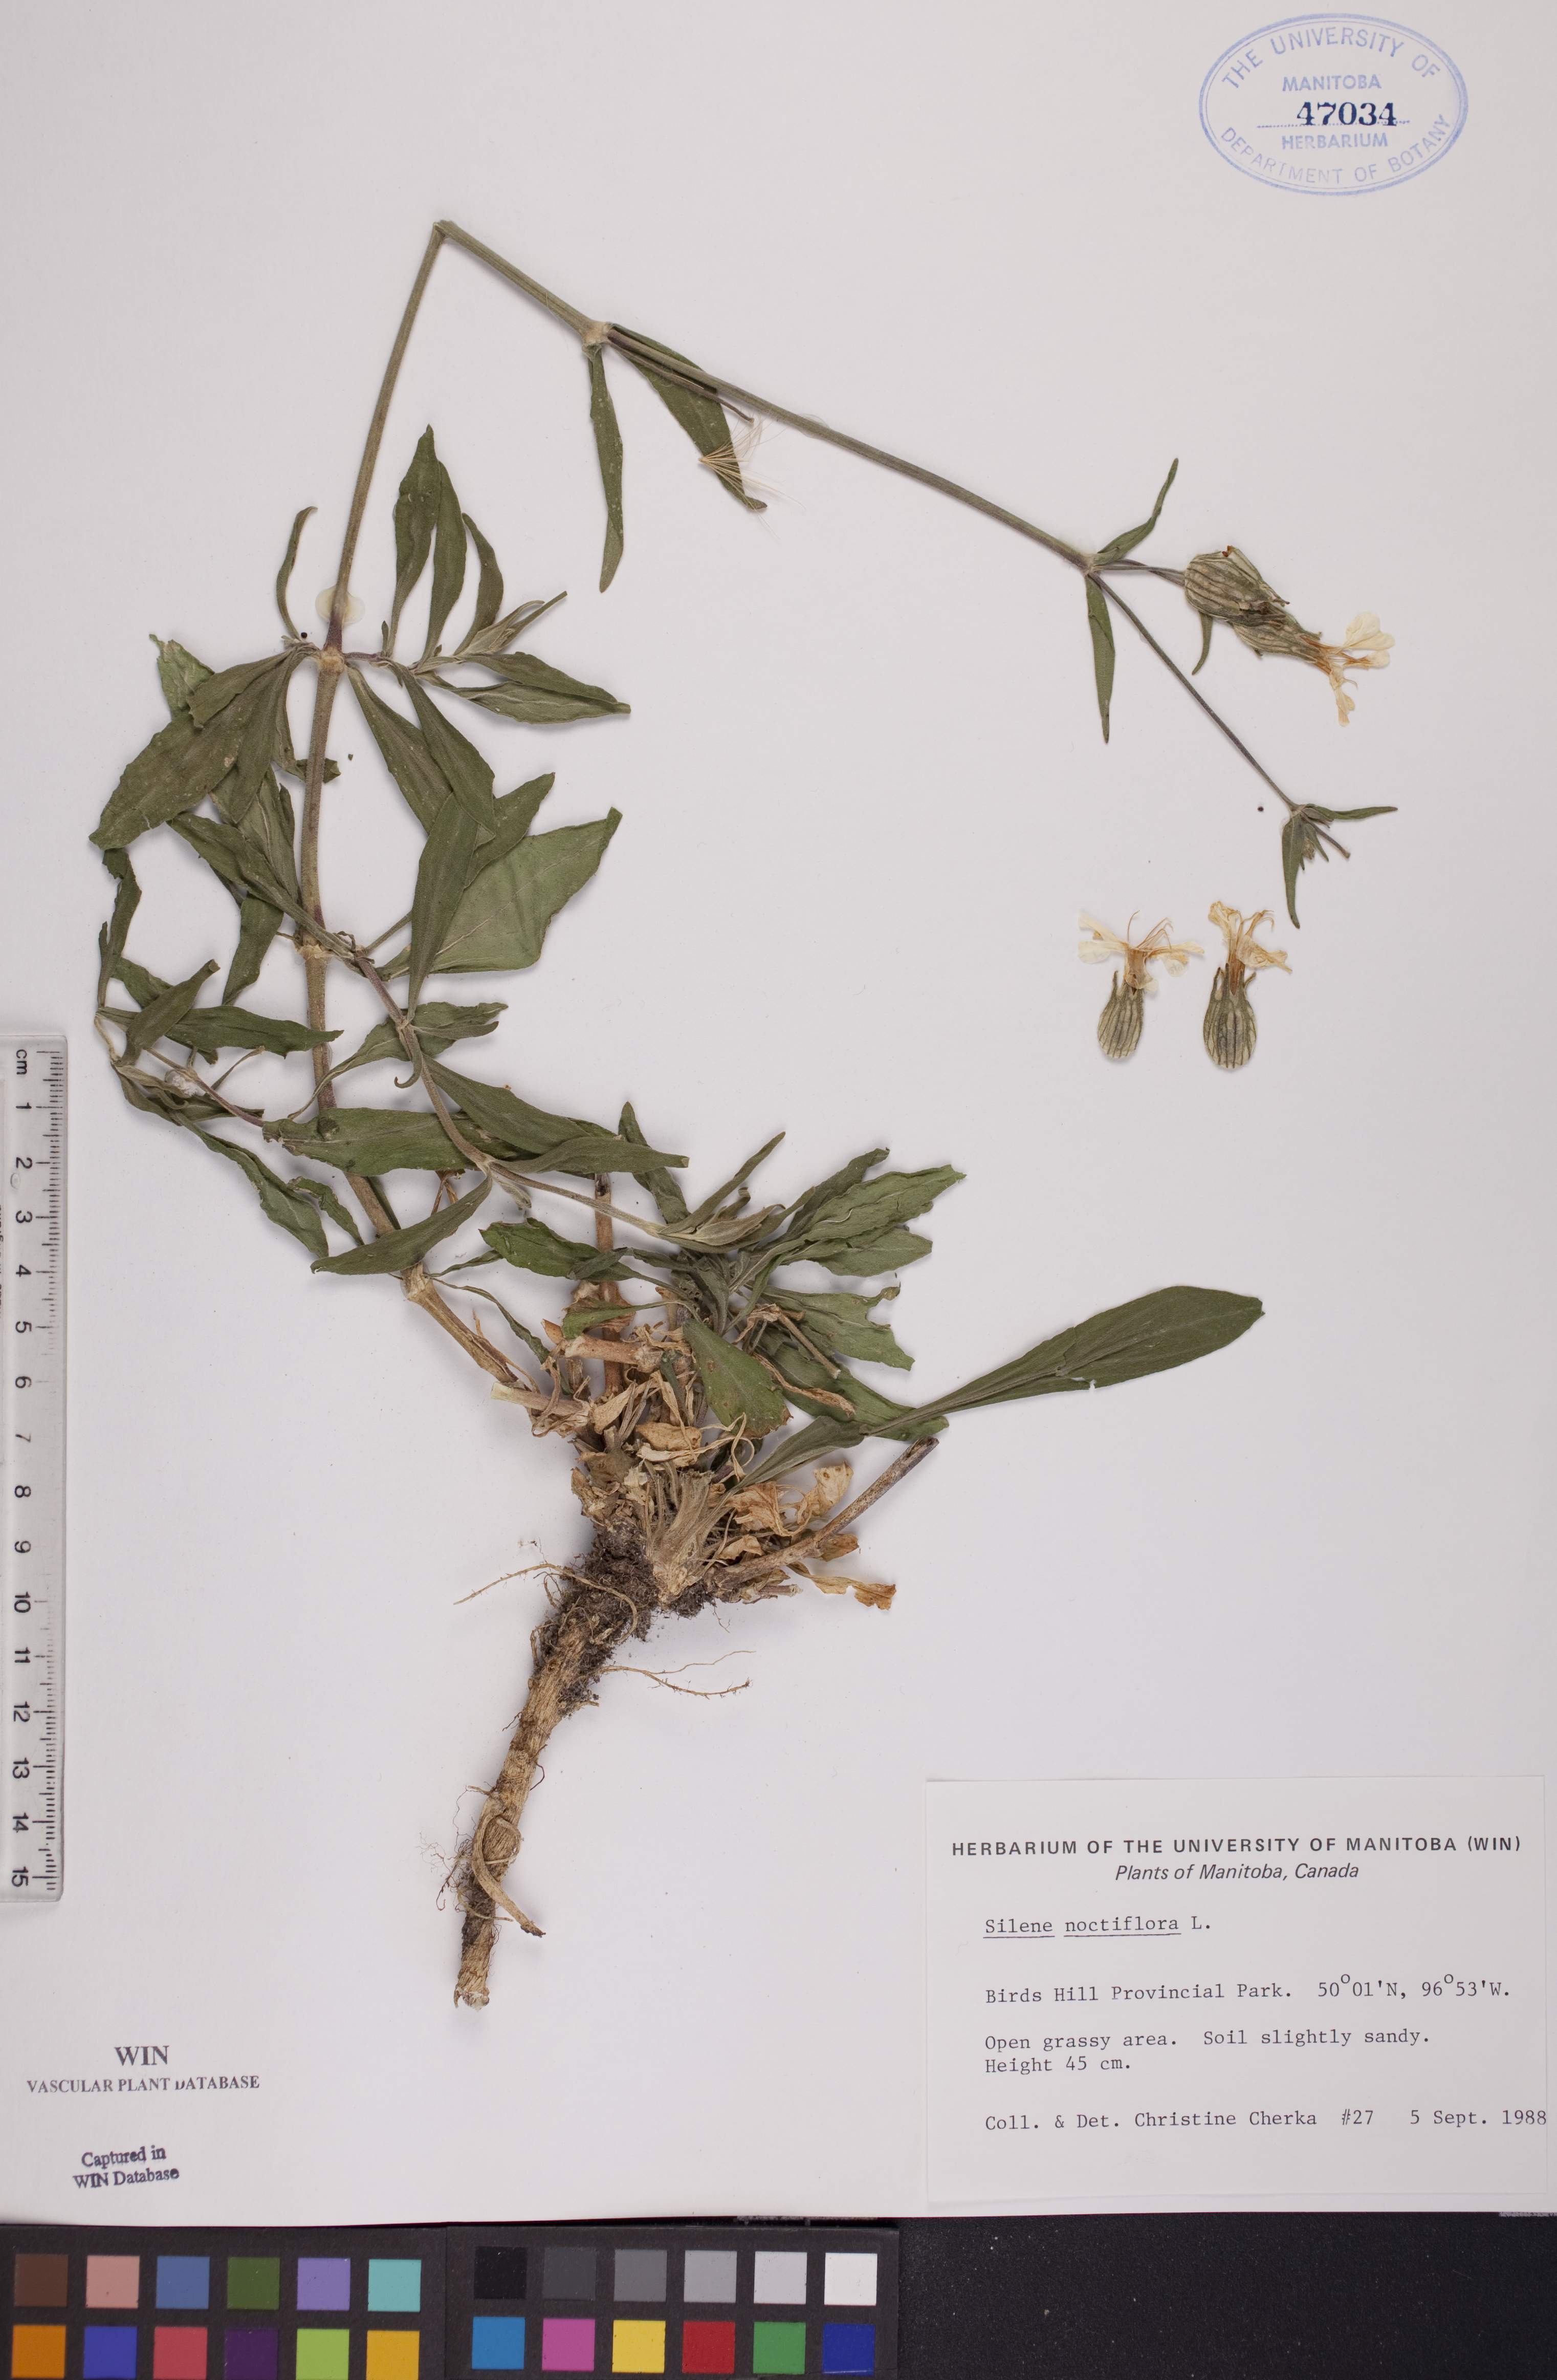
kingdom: Plantae
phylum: Tracheophyta
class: Magnoliopsida
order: Caryophyllales
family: Caryophyllaceae
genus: Silene
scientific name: Silene noctiflora
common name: Night-flowering catchfly
